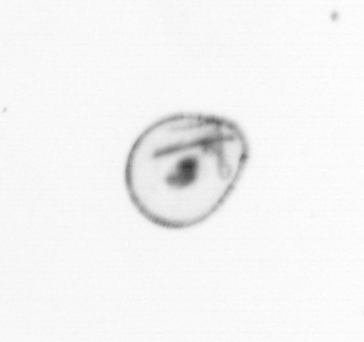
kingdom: Chromista
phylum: Myzozoa
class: Dinophyceae
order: Noctilucales
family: Noctilucaceae
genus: Noctiluca
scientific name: Noctiluca scintillans
